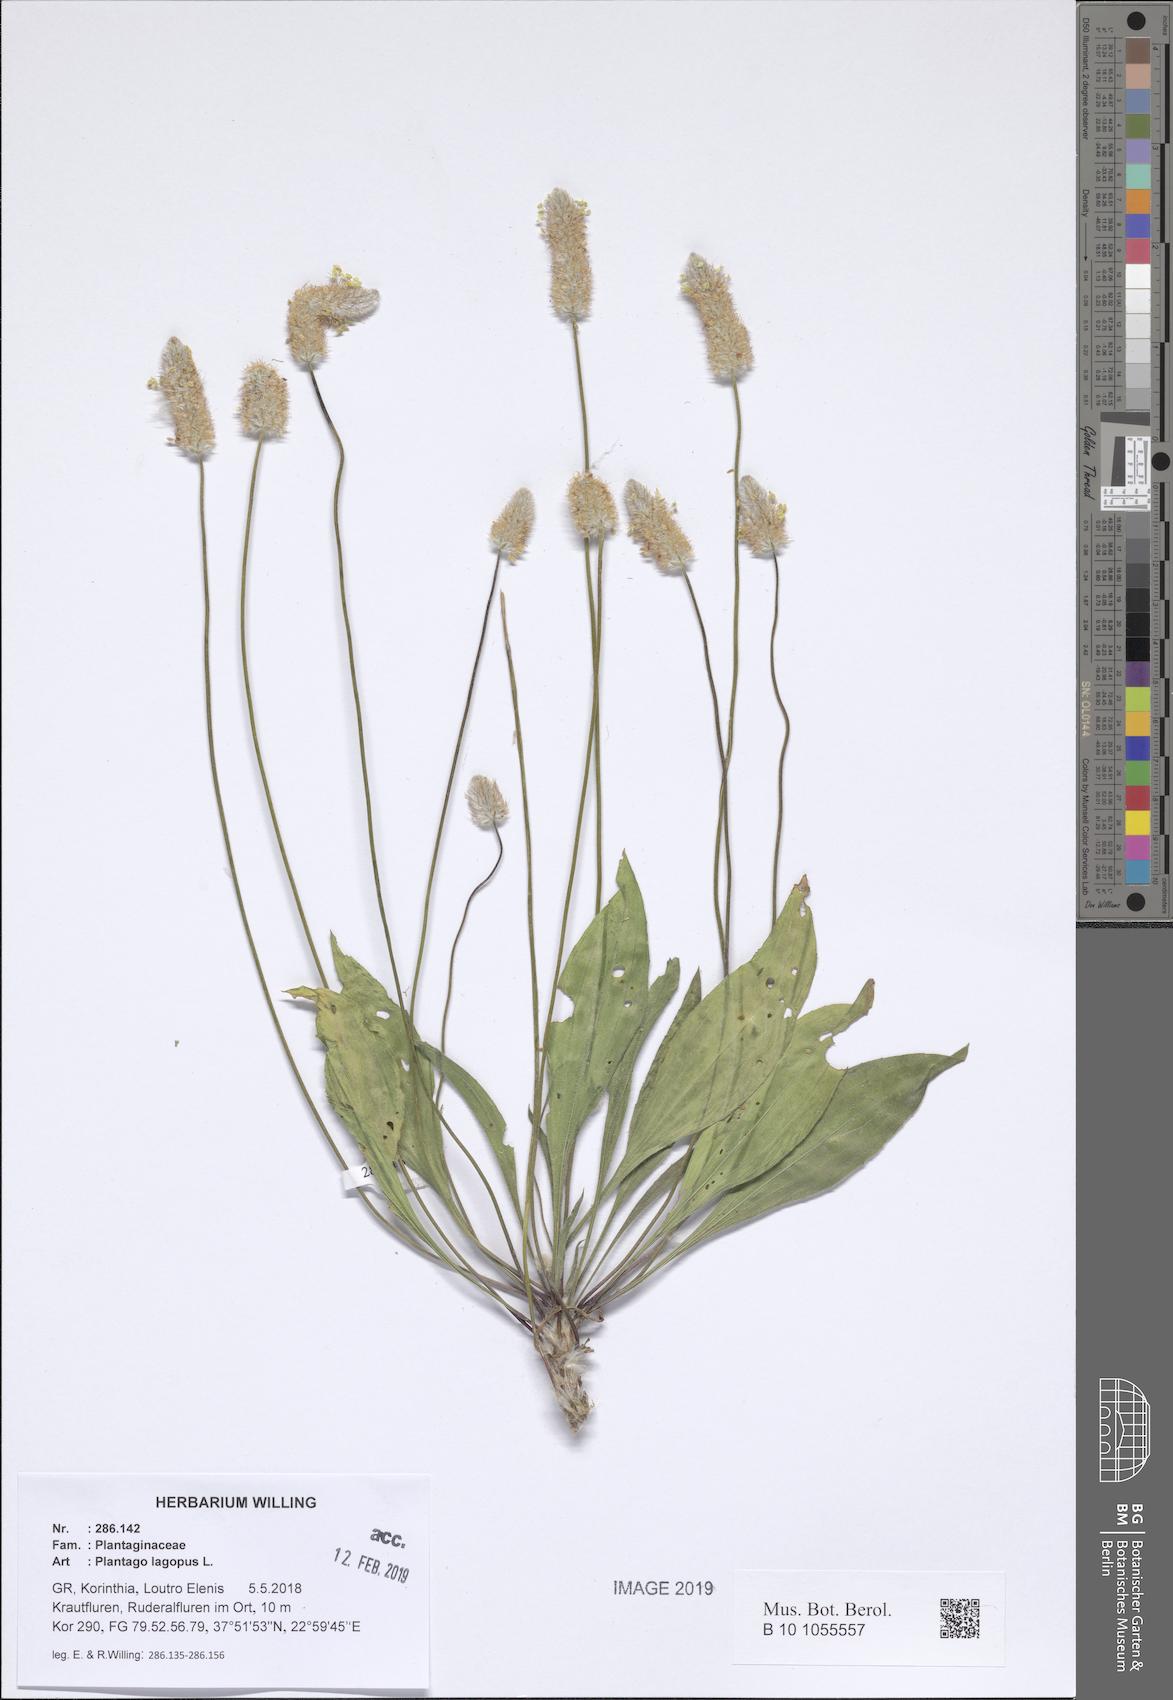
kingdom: Plantae
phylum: Tracheophyta
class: Magnoliopsida
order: Lamiales
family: Plantaginaceae
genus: Plantago
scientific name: Plantago lagopus
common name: Hare-foot plantain
